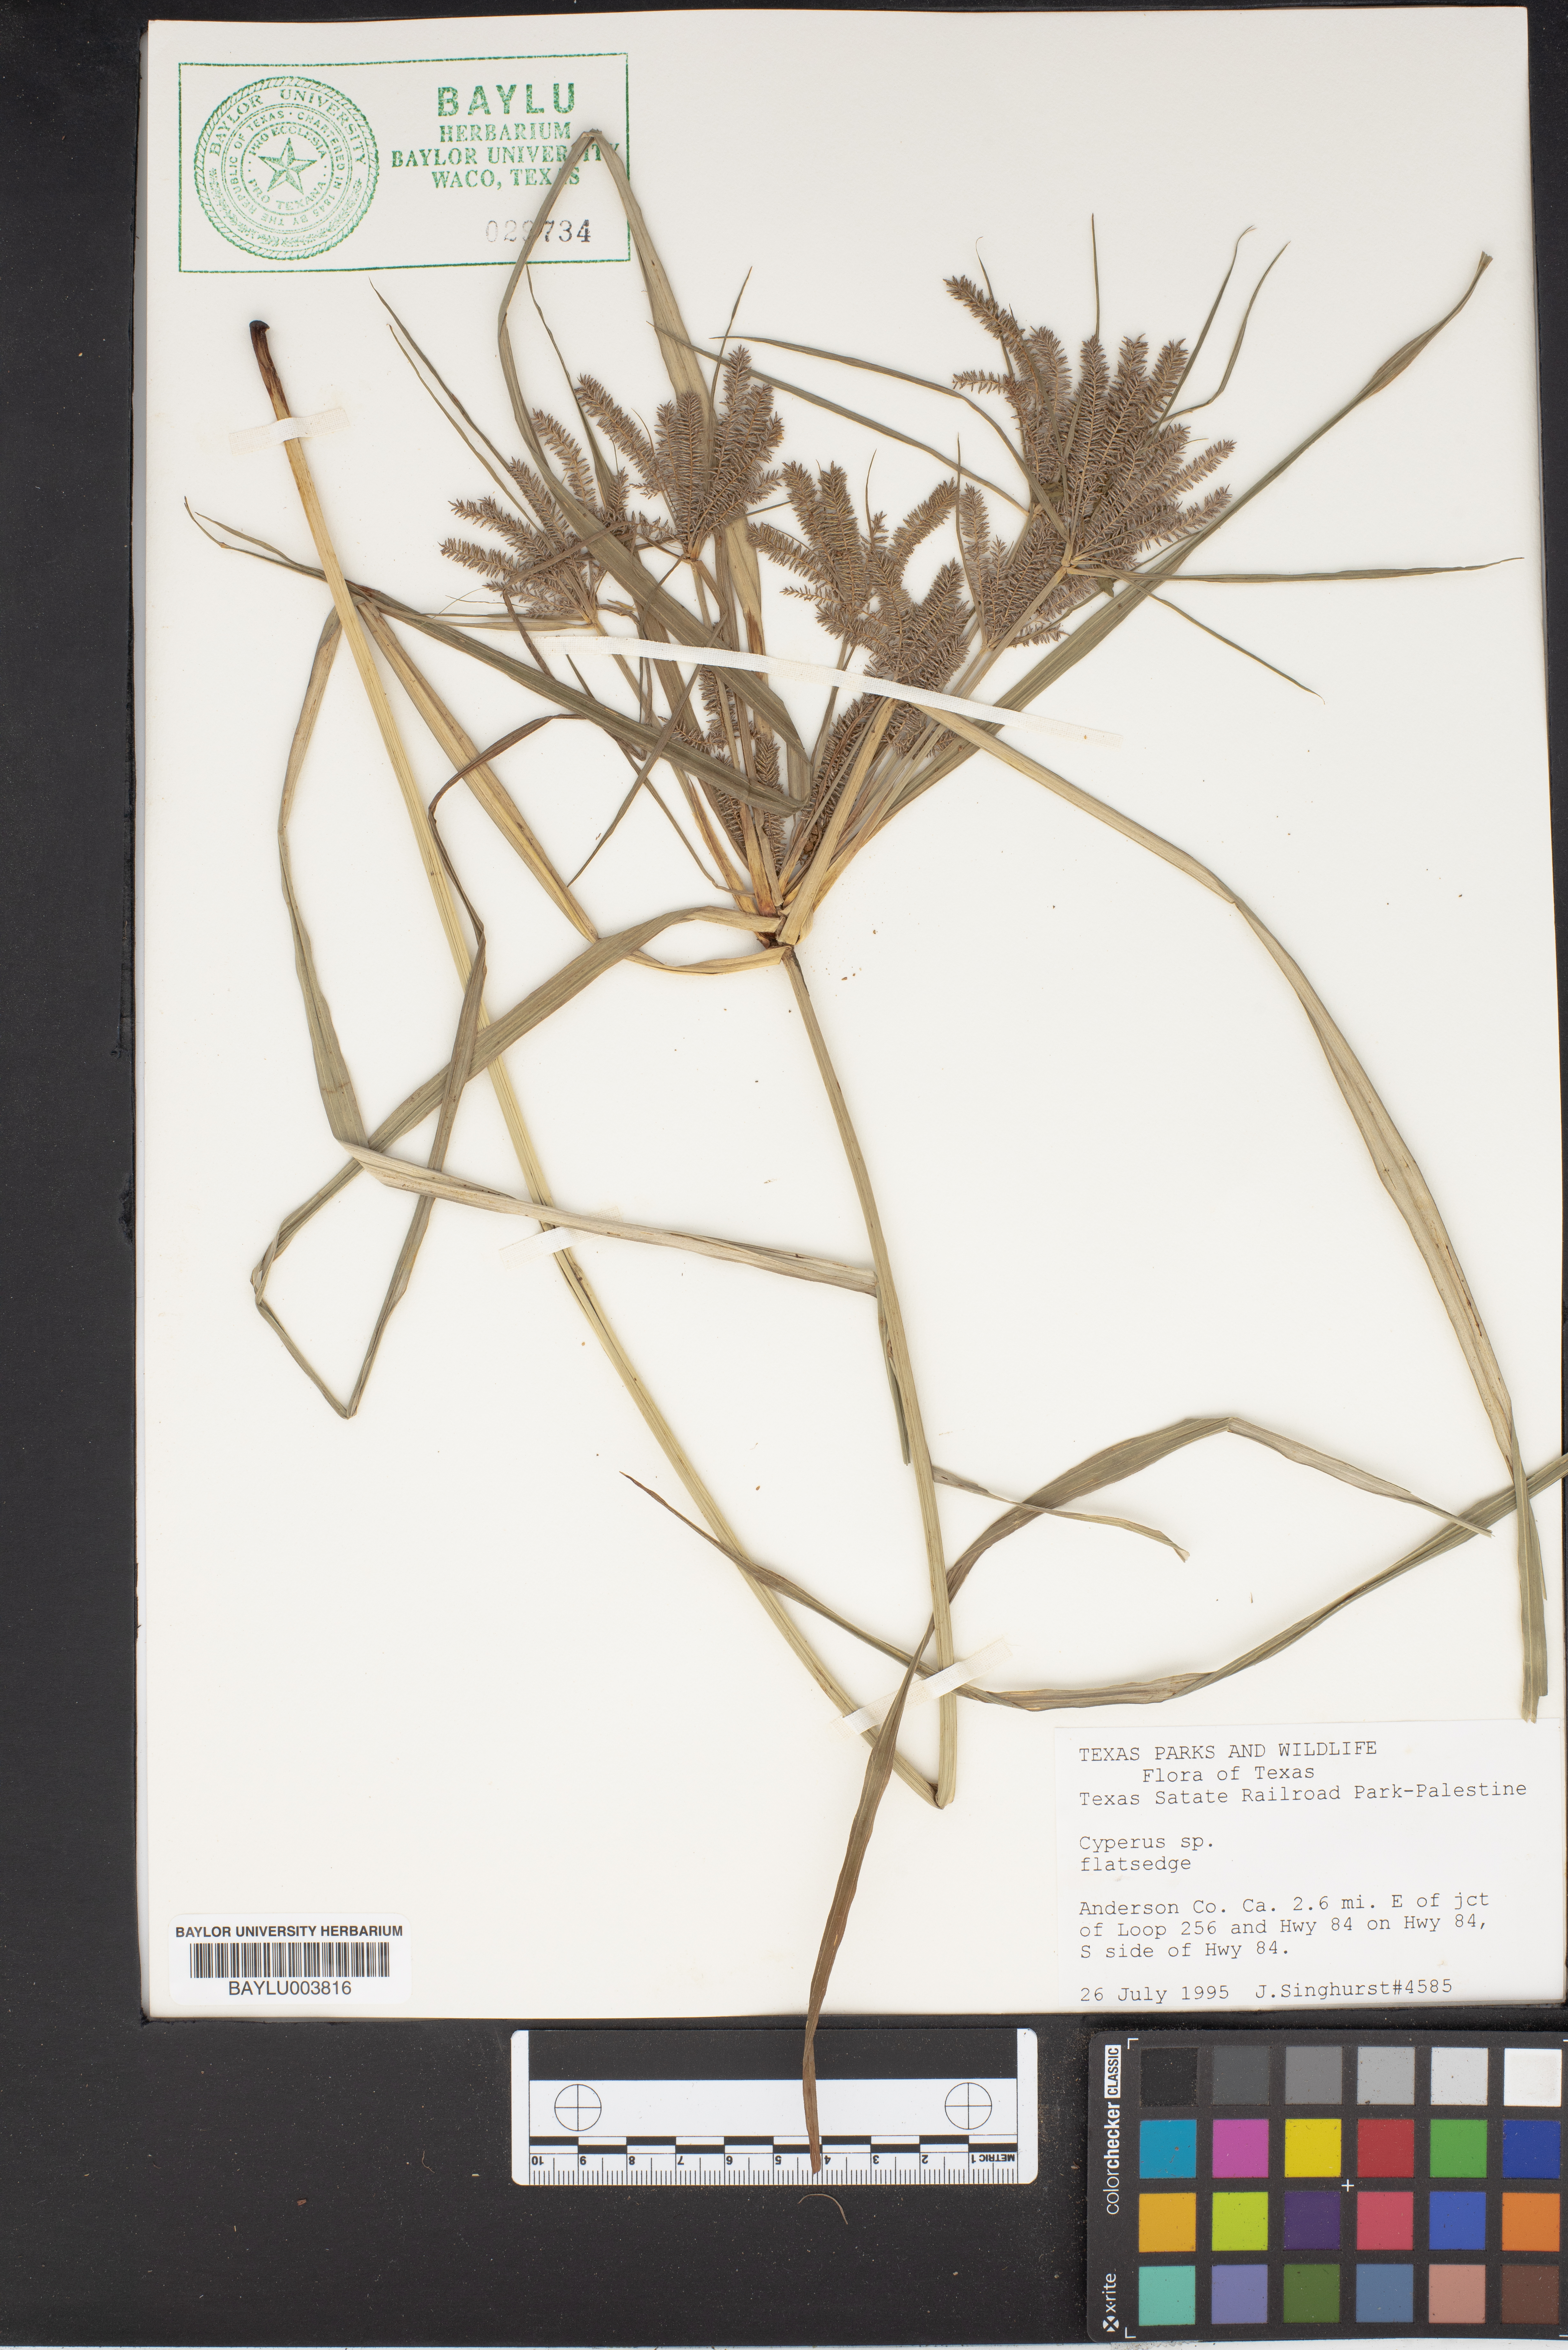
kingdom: Plantae
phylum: Tracheophyta
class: Liliopsida
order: Poales
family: Cyperaceae
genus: Cyperus
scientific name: Cyperus
